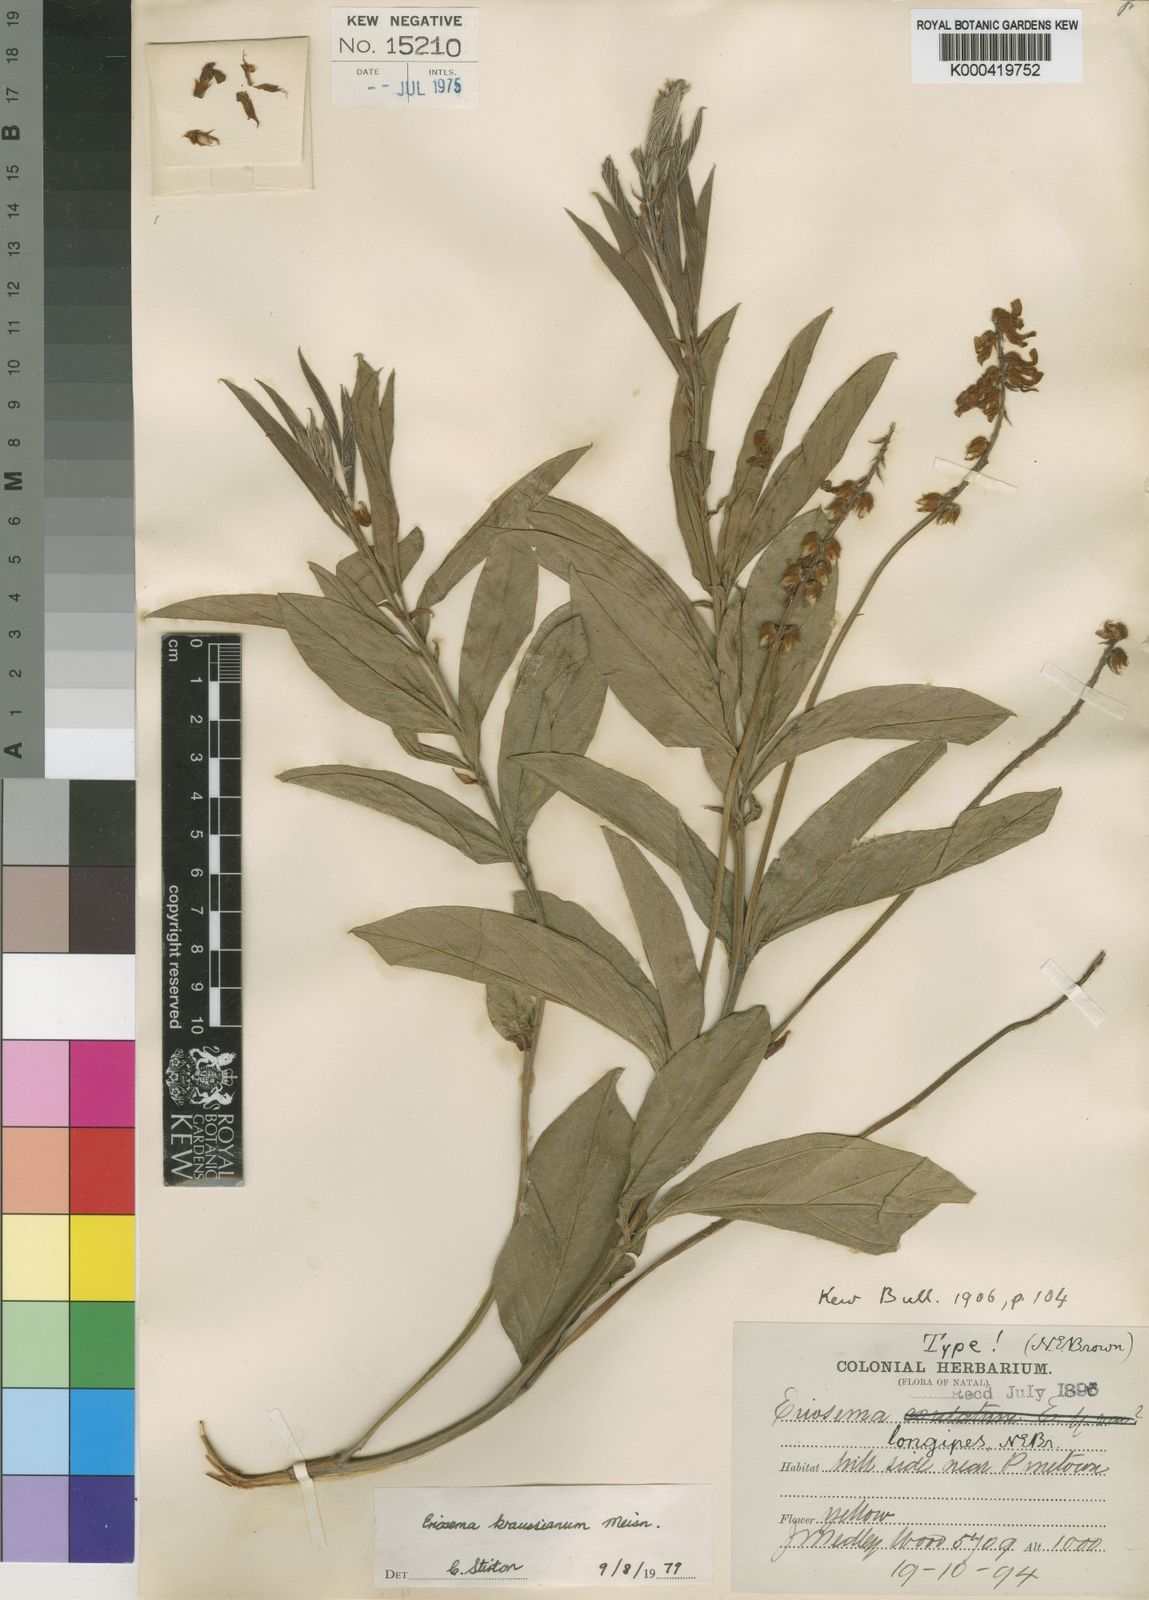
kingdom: Plantae
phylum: Tracheophyta
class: Magnoliopsida
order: Fabales
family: Fabaceae
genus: Eriosema
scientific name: Eriosema kraussianum
